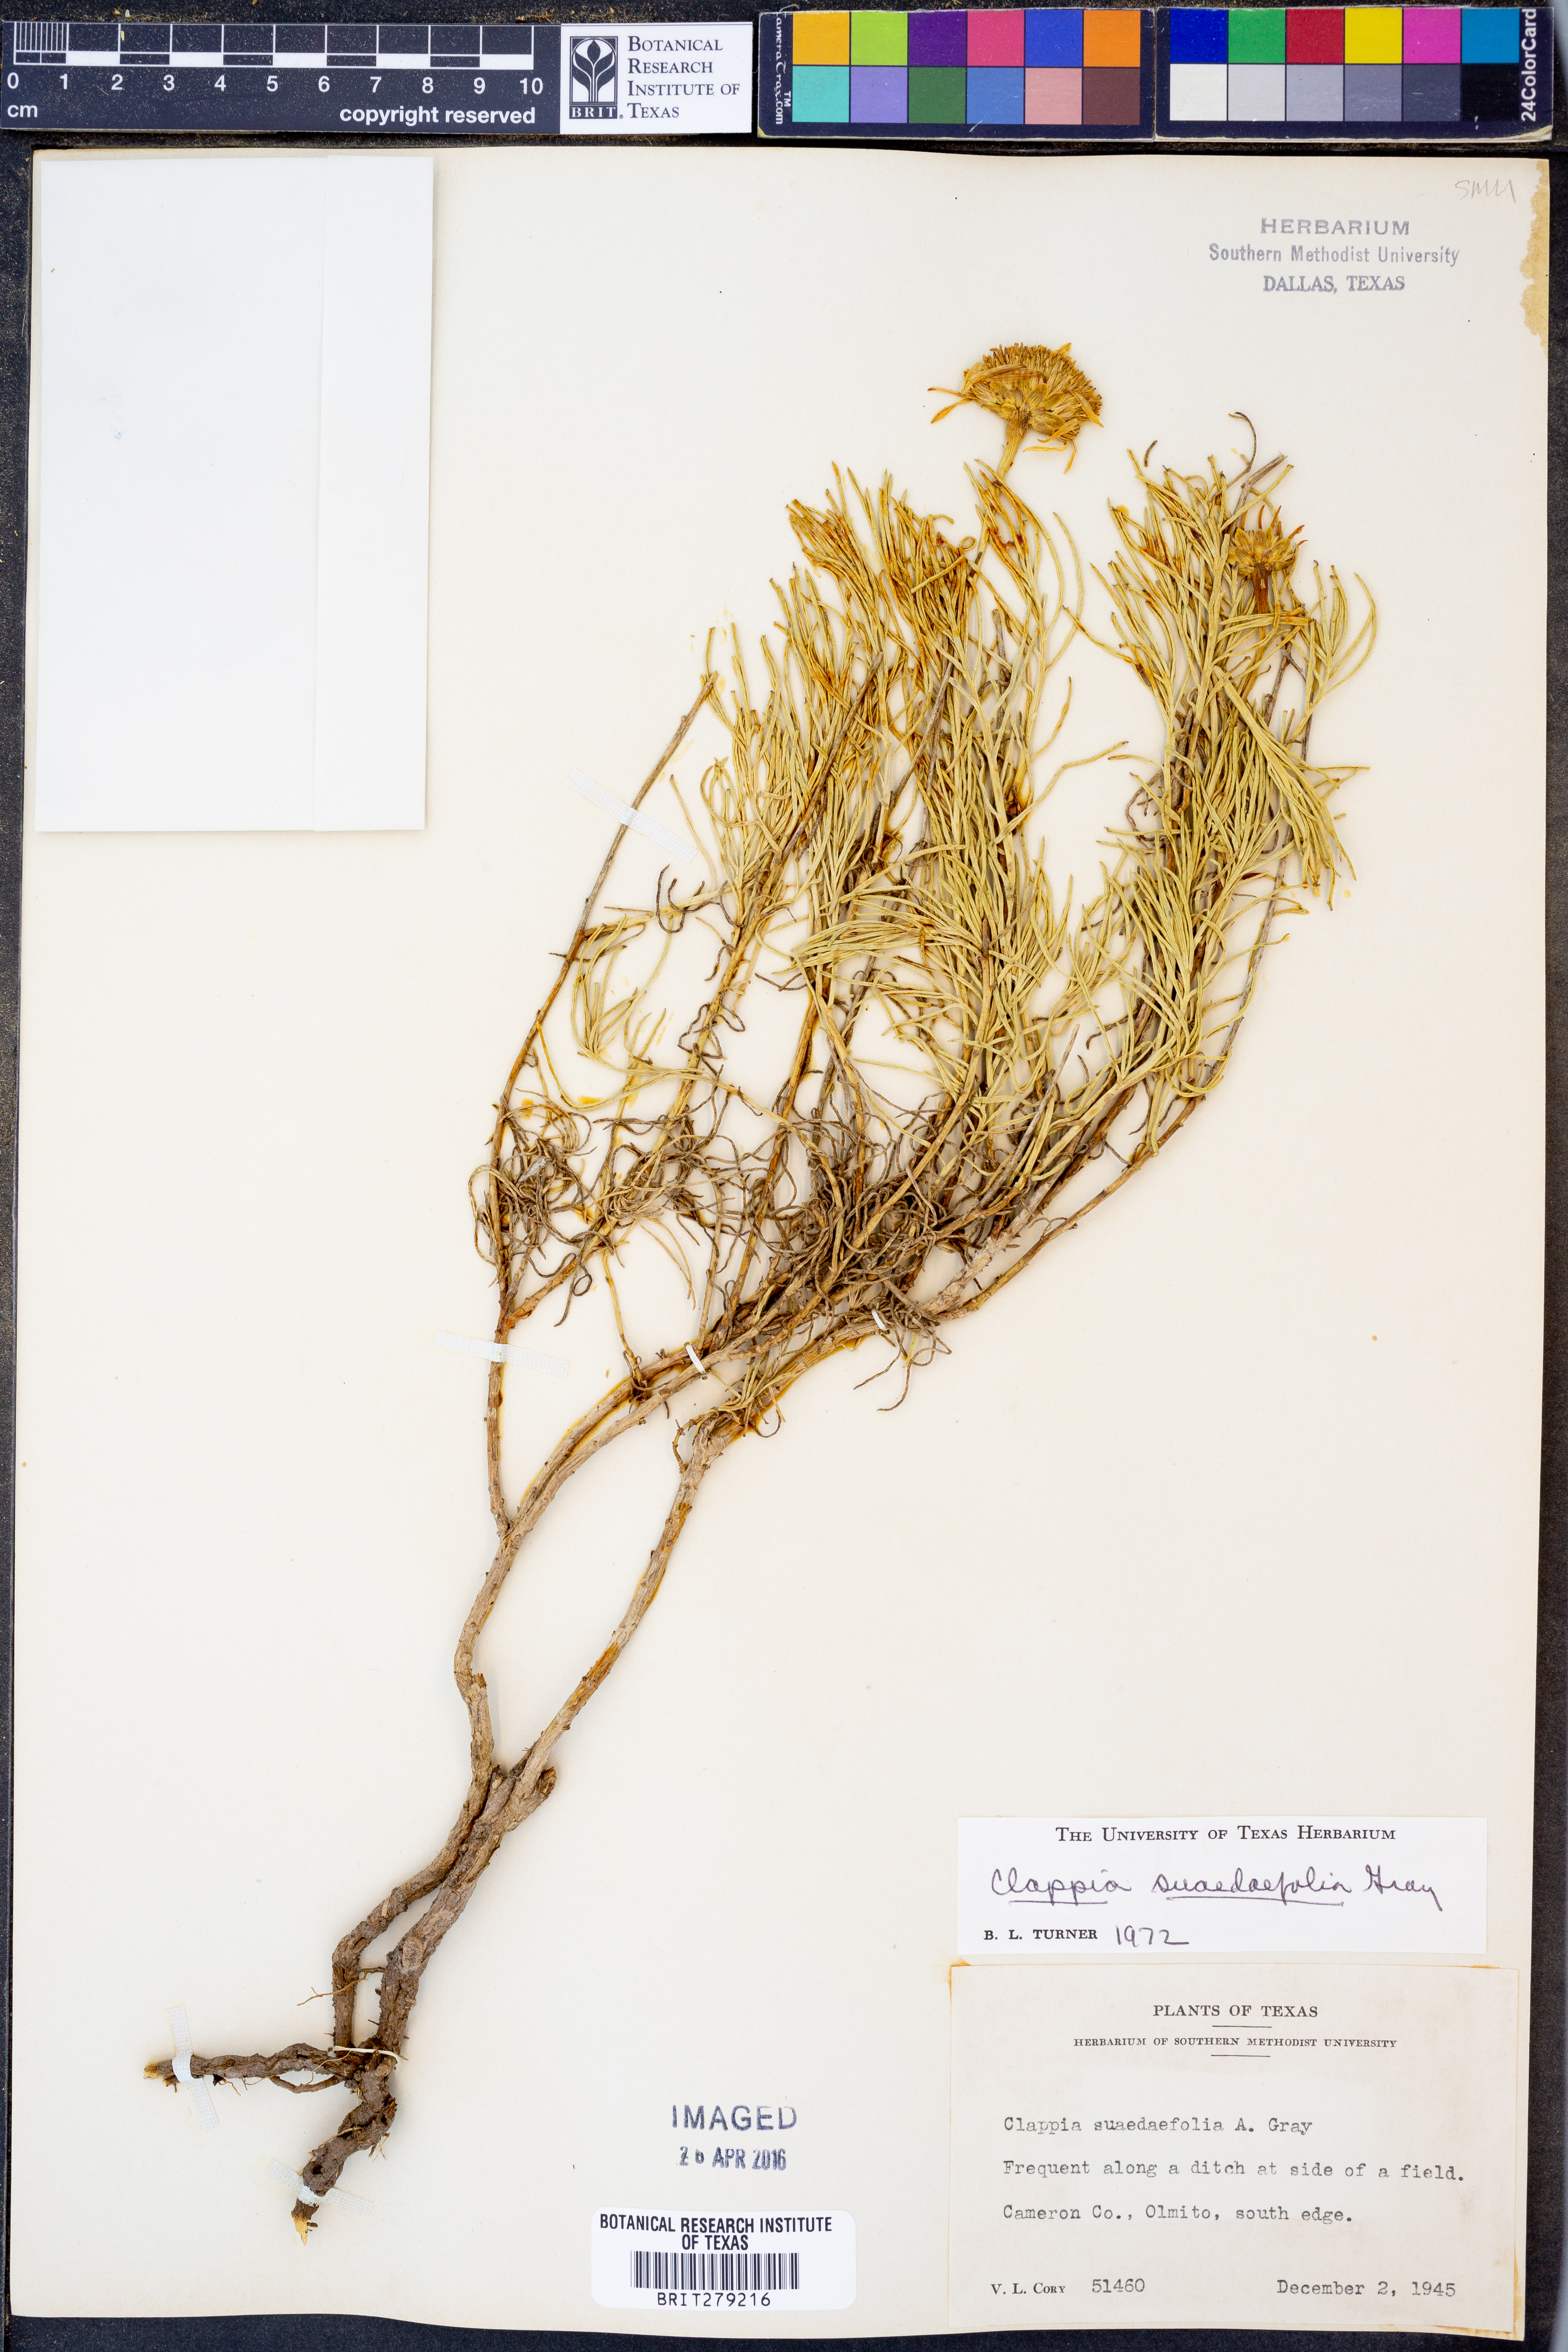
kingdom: Plantae
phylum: Tracheophyta
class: Magnoliopsida
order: Asterales
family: Asteraceae
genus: Clappia
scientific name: Clappia suaedaefolia
